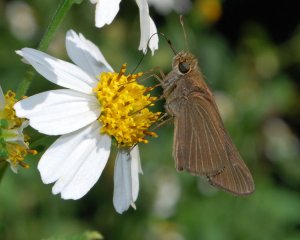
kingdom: Animalia
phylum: Arthropoda
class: Insecta
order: Lepidoptera
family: Hesperiidae
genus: Panoquina
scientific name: Panoquina ocola
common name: Ocola Skipper
